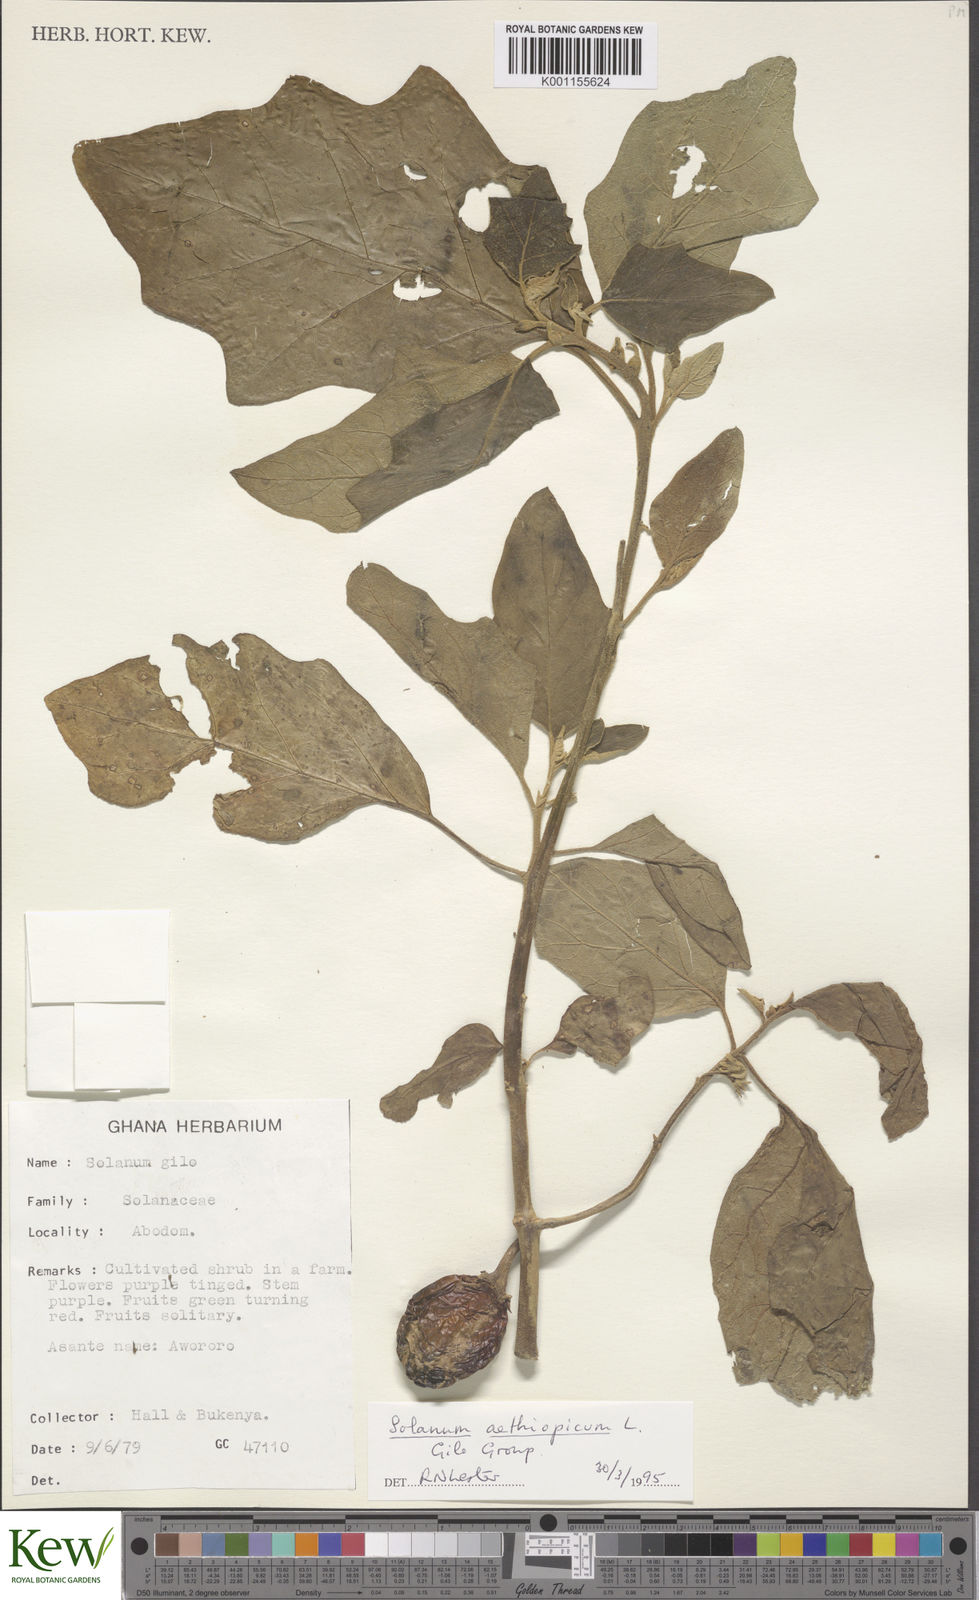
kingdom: Plantae
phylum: Tracheophyta
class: Magnoliopsida
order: Solanales
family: Solanaceae
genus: Solanum
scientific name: Solanum aethiopicum
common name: Gilo
